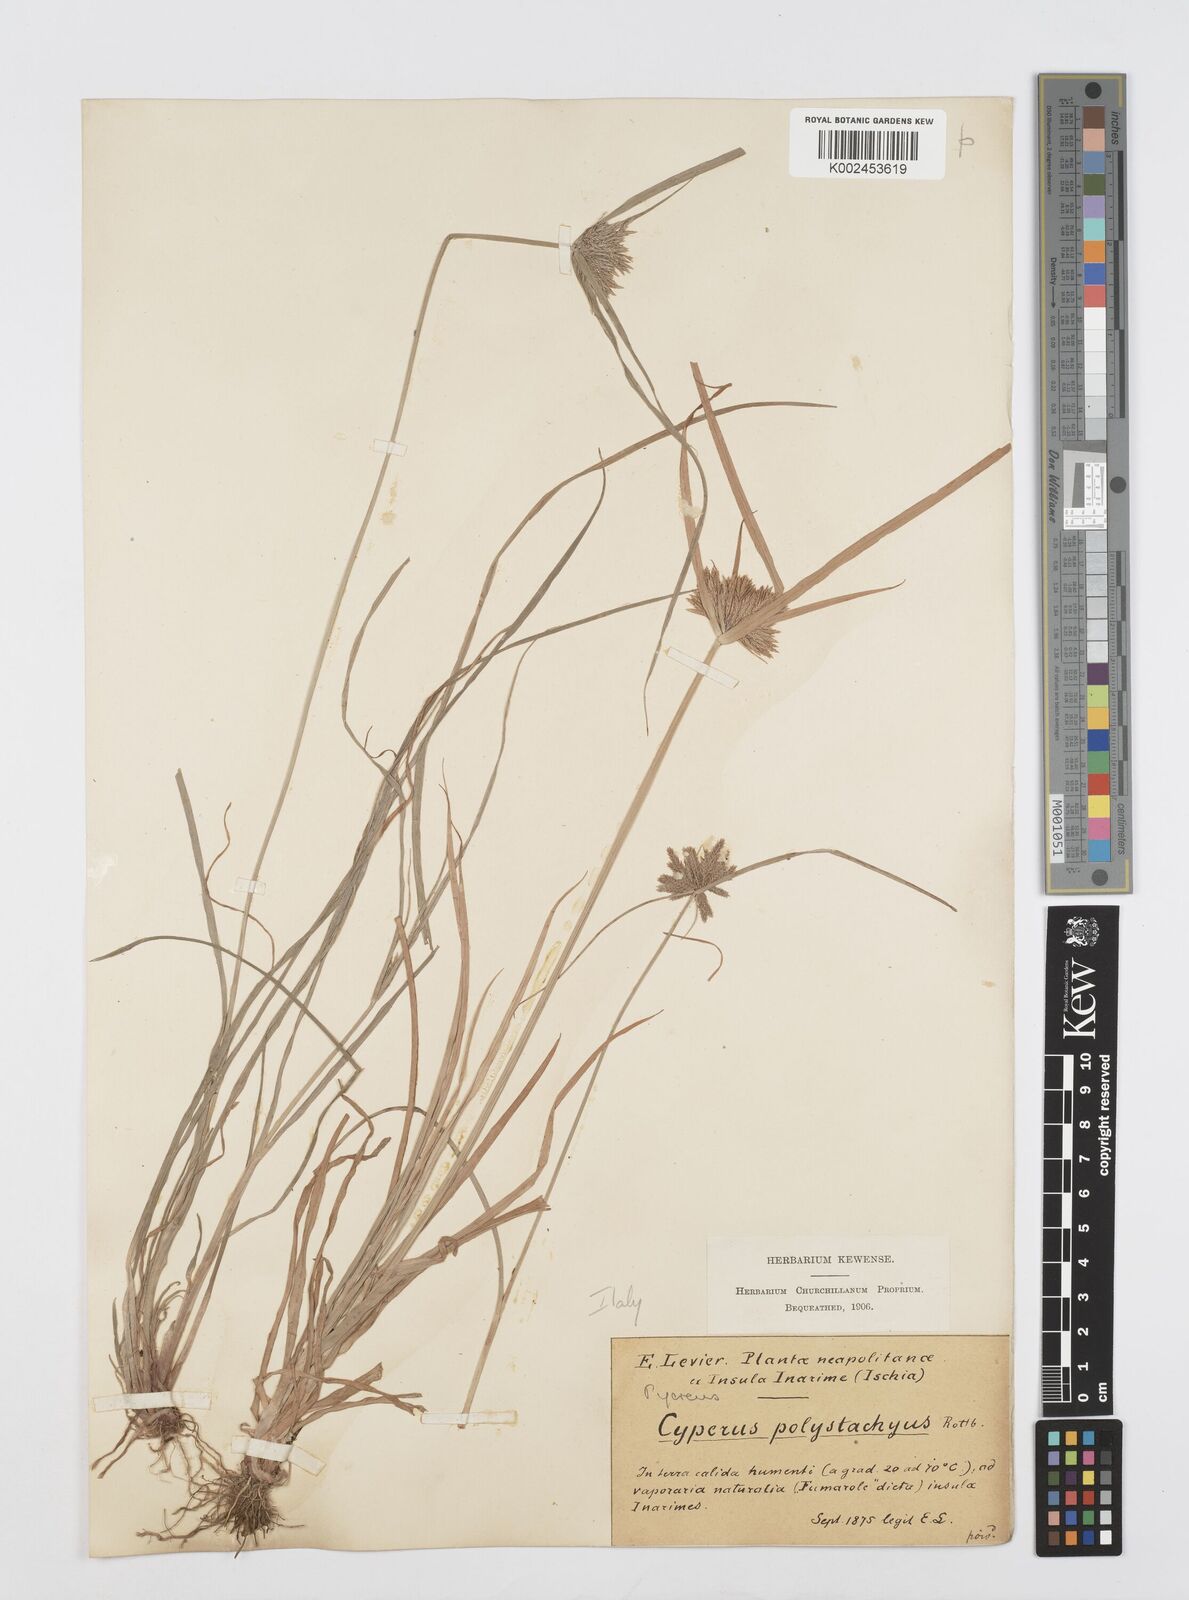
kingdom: Plantae
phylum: Tracheophyta
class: Liliopsida
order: Poales
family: Cyperaceae
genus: Cyperus
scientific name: Cyperus polystachyos
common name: Bunchy flat sedge
